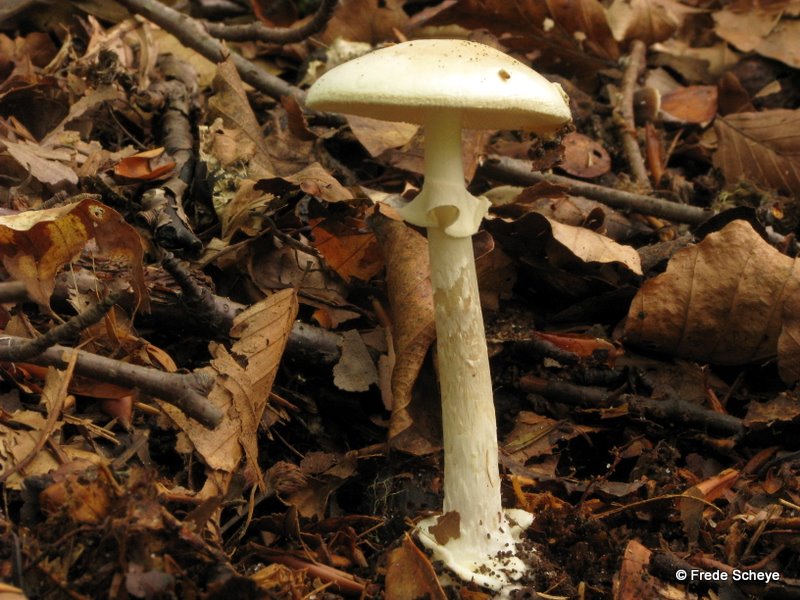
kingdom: Fungi
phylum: Basidiomycota
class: Agaricomycetes
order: Agaricales
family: Amanitaceae
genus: Amanita
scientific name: Amanita citrina
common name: kugleknoldet fluesvamp
